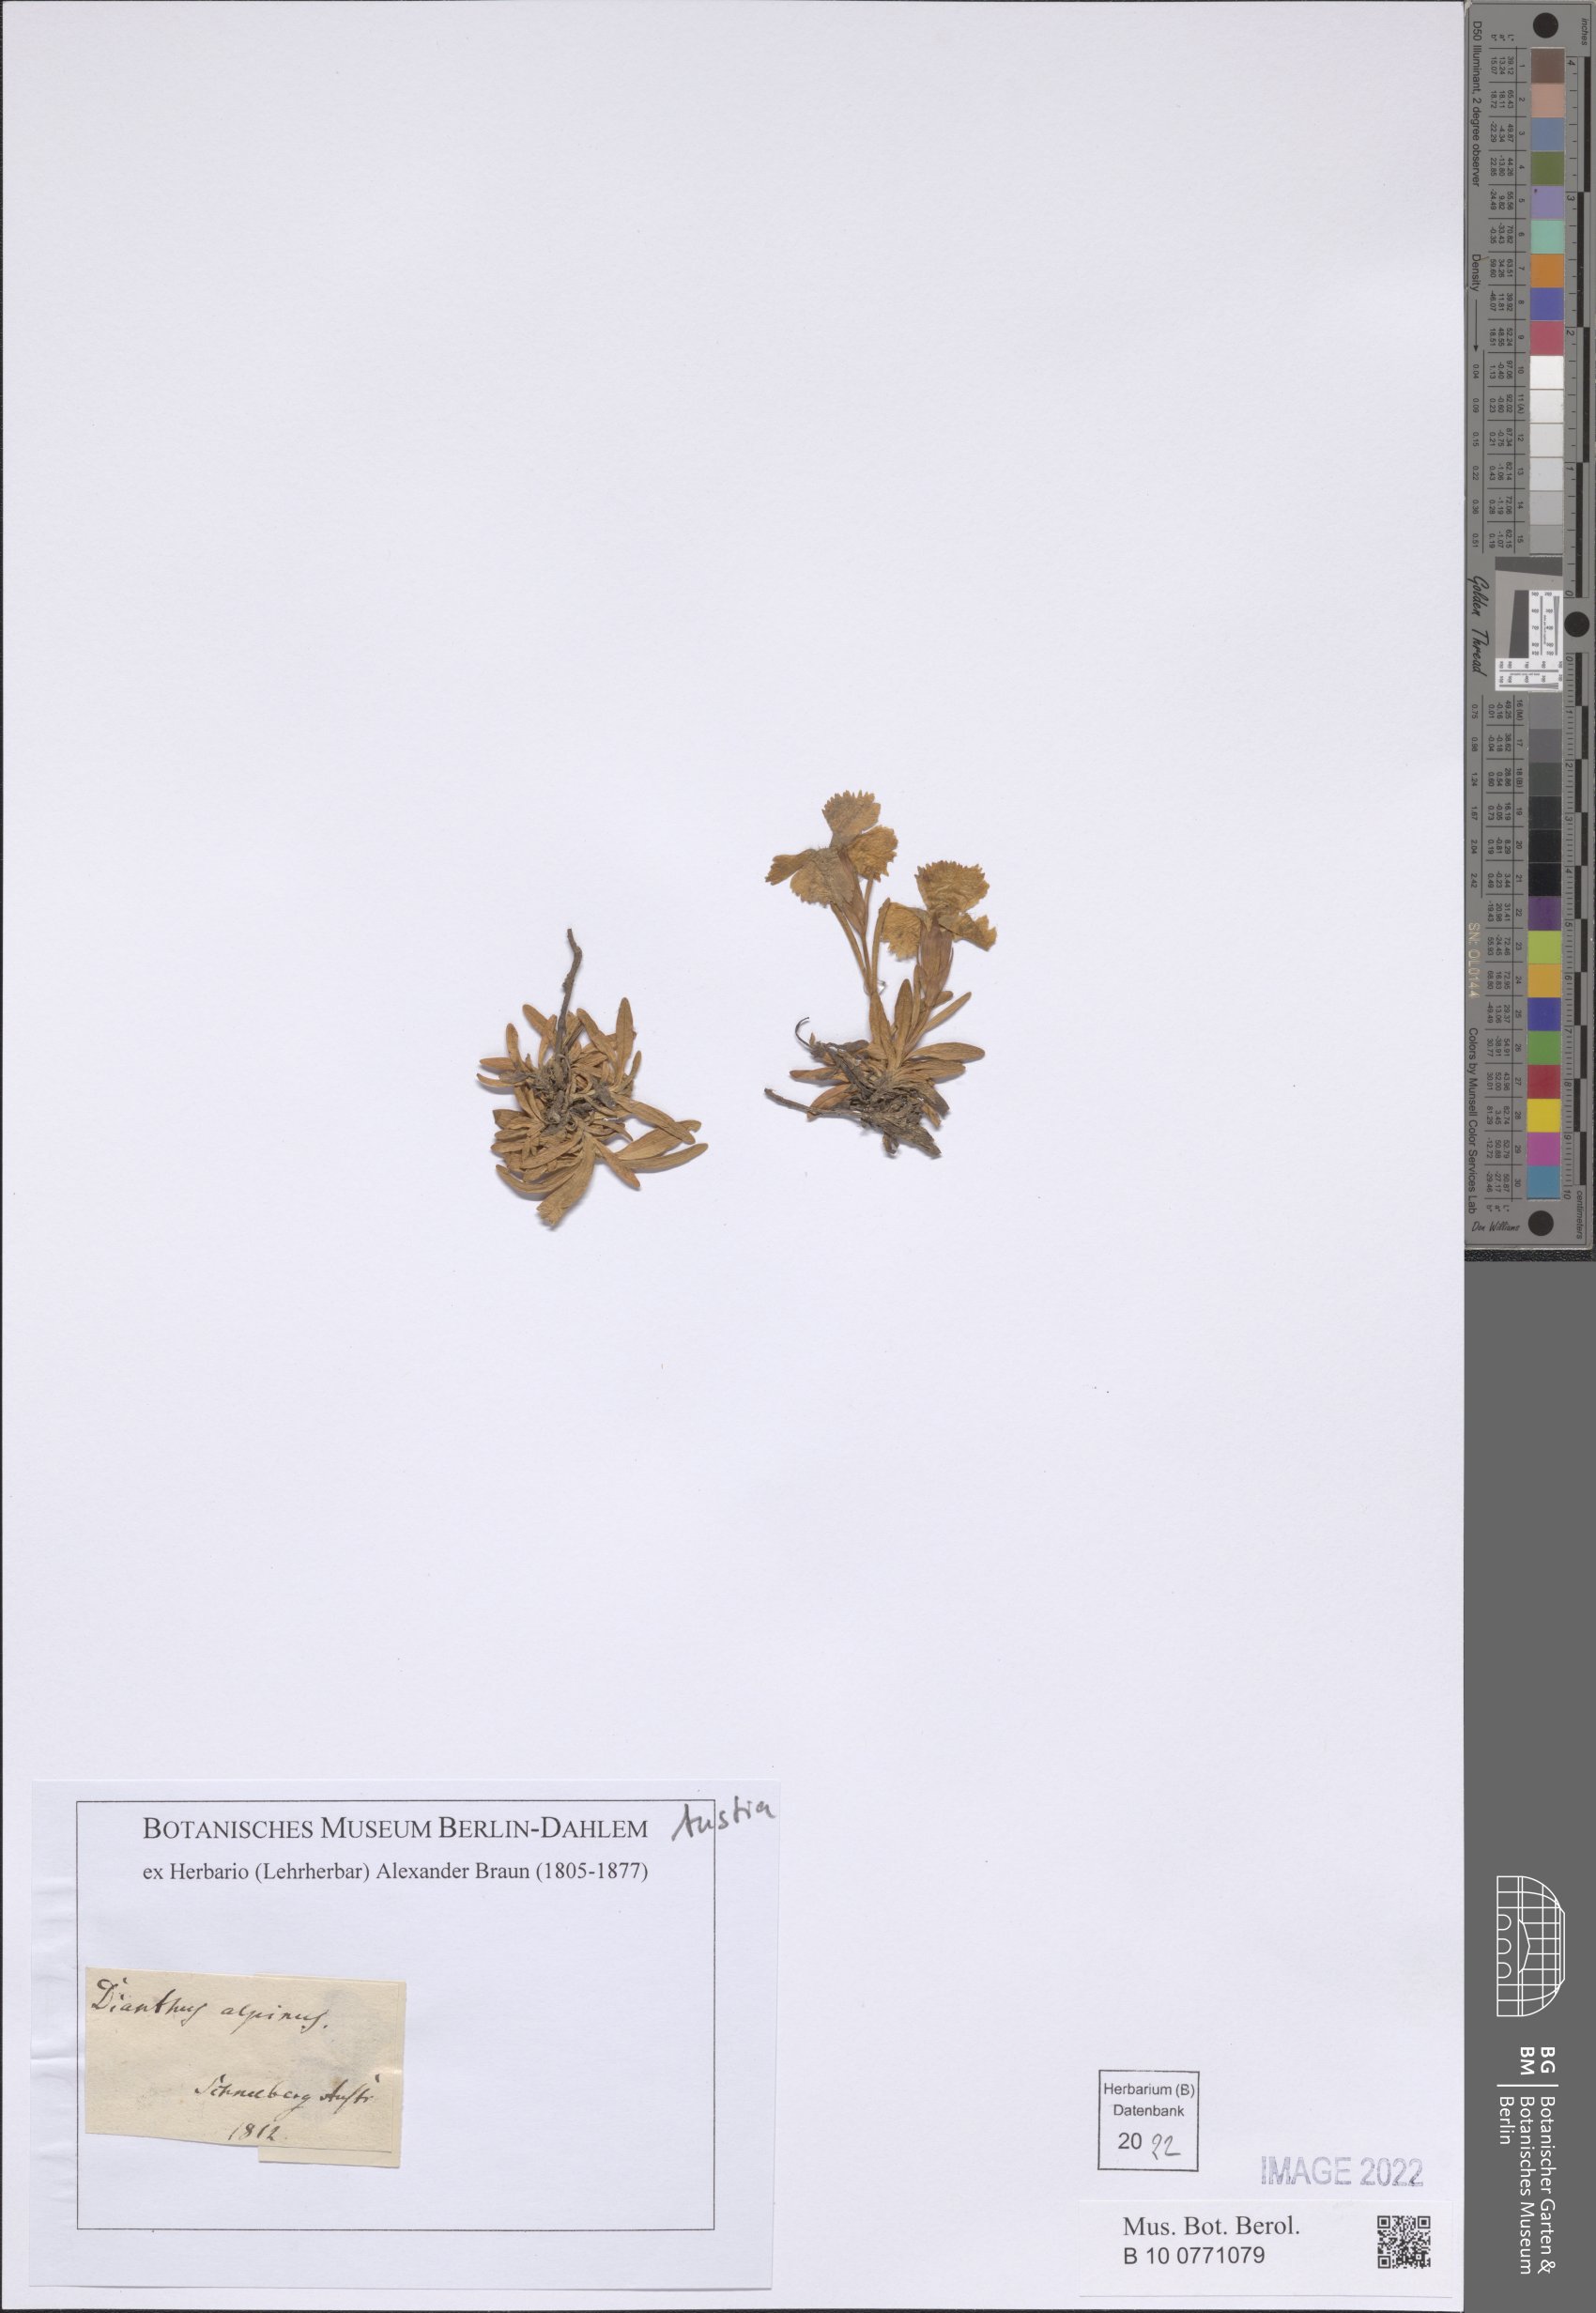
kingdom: Plantae
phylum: Tracheophyta
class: Magnoliopsida
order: Caryophyllales
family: Caryophyllaceae
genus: Dianthus
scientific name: Dianthus alpinus
